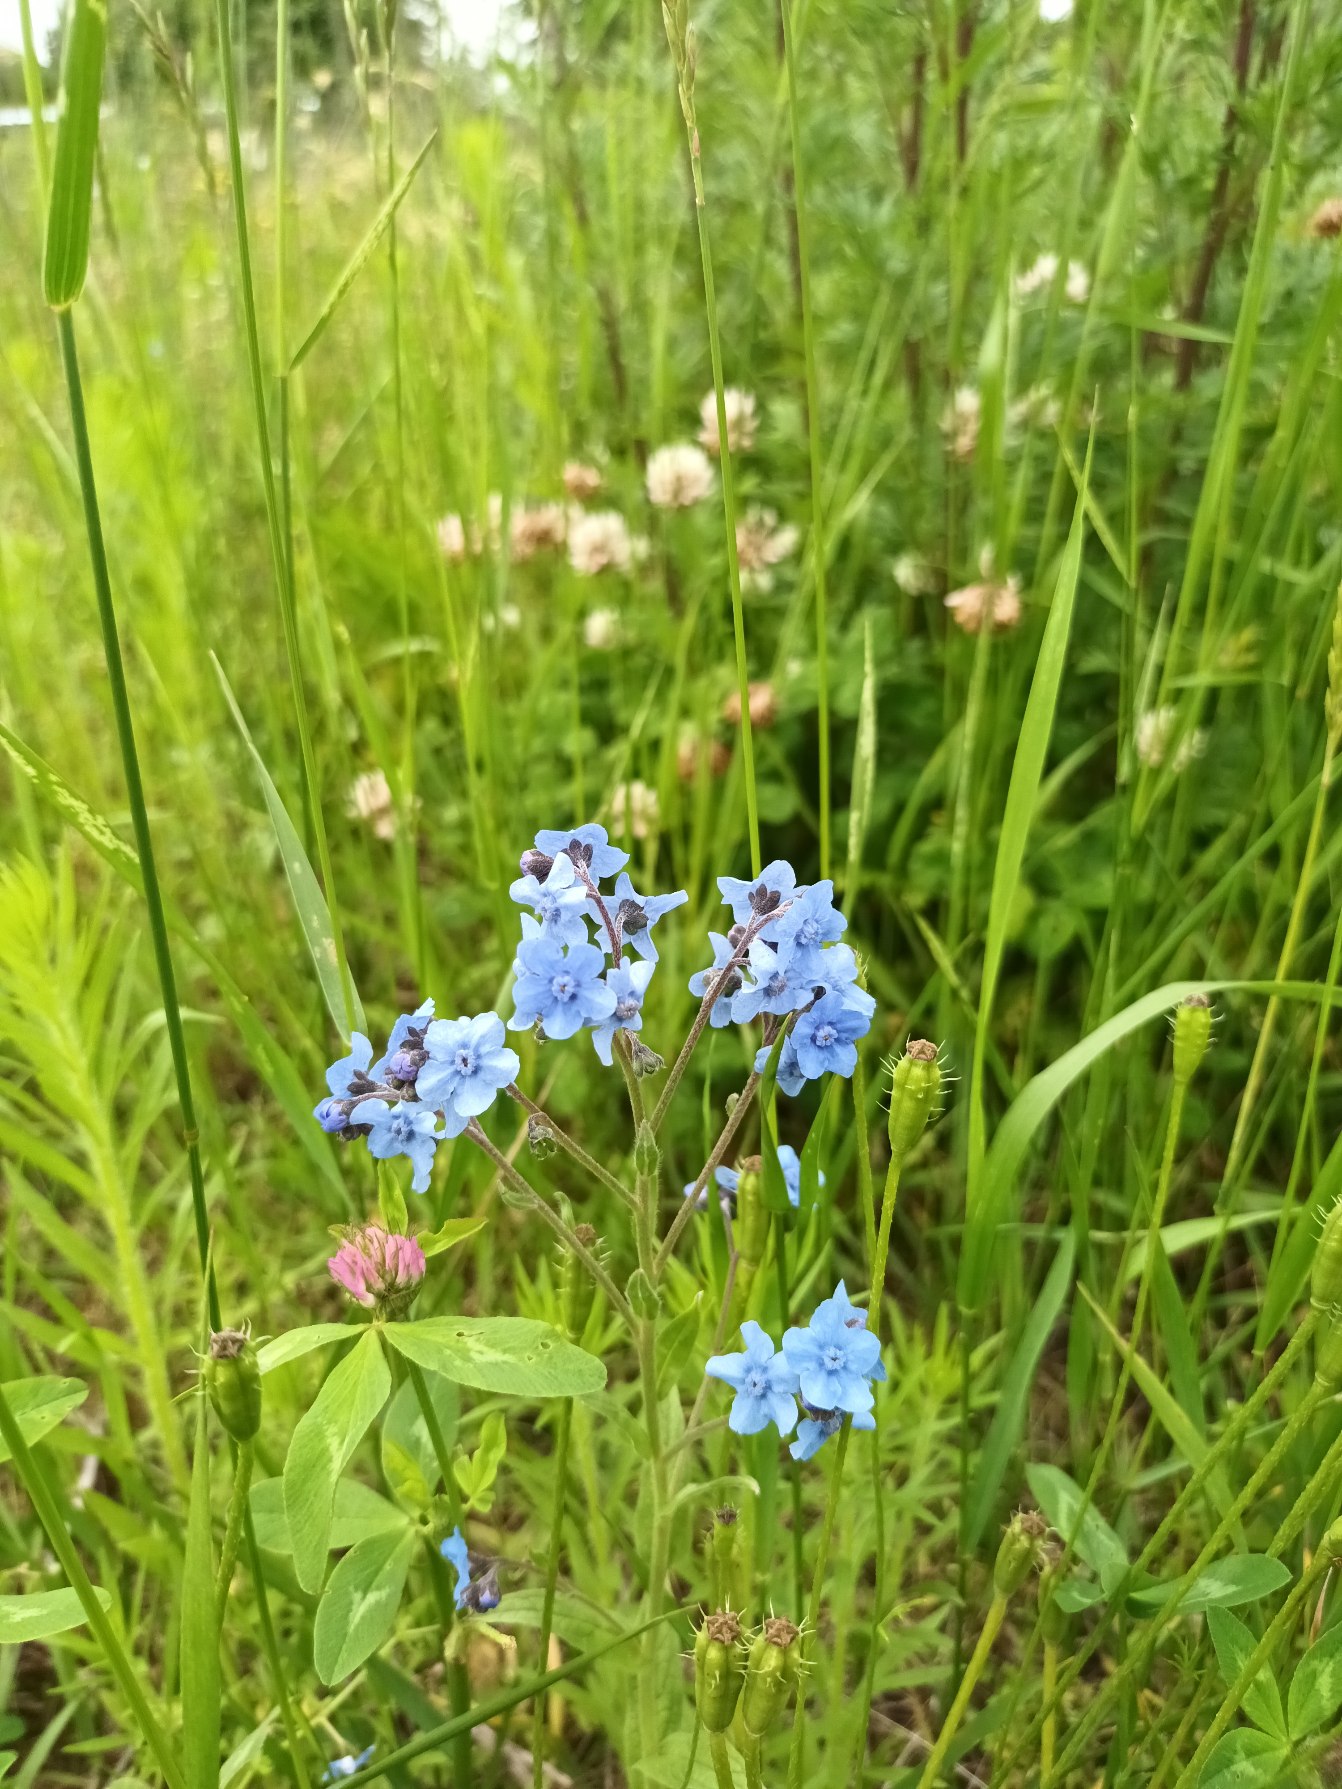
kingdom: Plantae
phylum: Tracheophyta
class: Magnoliopsida
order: Boraginales
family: Boraginaceae
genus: Cynoglossum
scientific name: Cynoglossum amabile
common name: Kinesisk hundetunge
